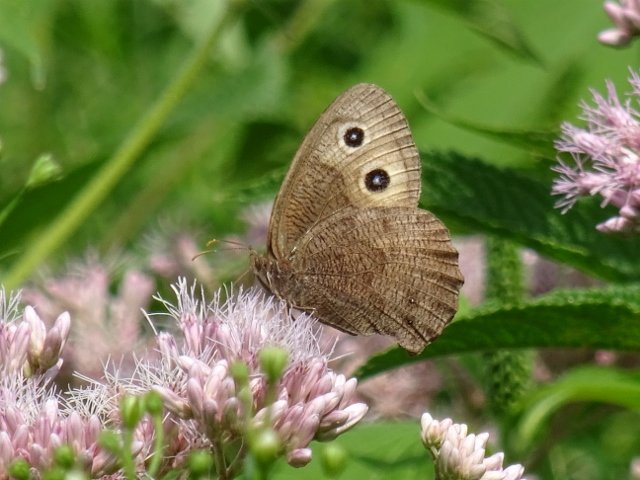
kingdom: Animalia
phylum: Arthropoda
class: Insecta
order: Lepidoptera
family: Nymphalidae
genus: Cercyonis
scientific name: Cercyonis pegala
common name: Common Wood-Nymph
